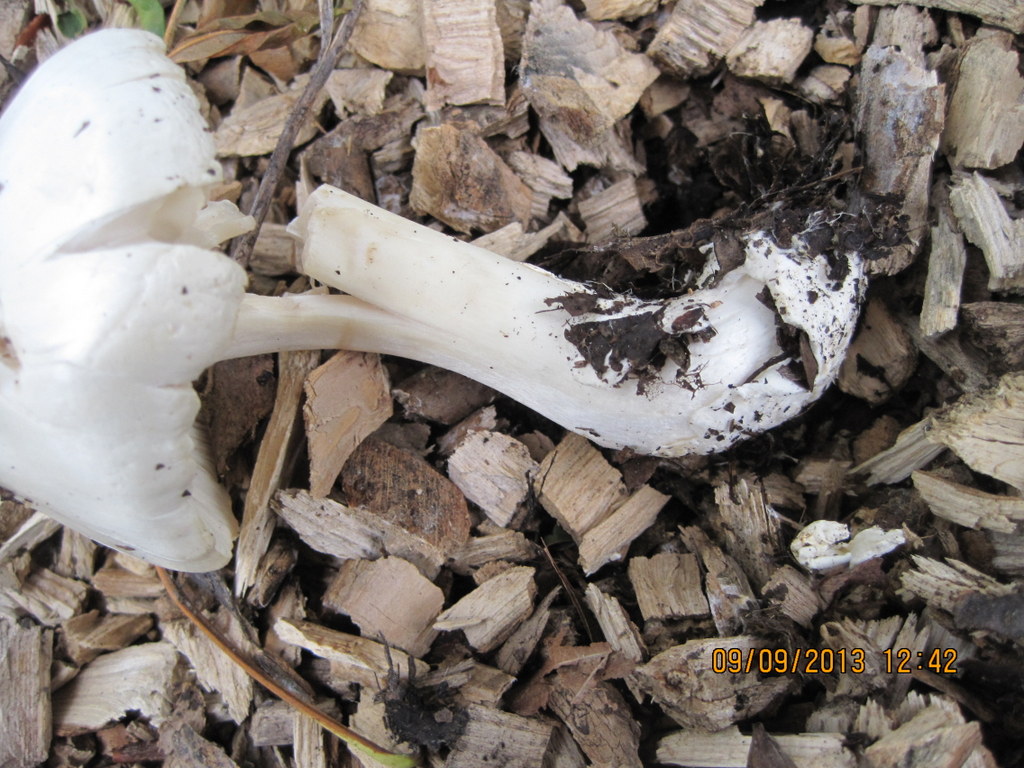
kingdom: Fungi
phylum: Basidiomycota
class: Agaricomycetes
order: Agaricales
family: Pluteaceae
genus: Volvopluteus
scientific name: Volvopluteus gloiocephalus
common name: høj posesvamp
